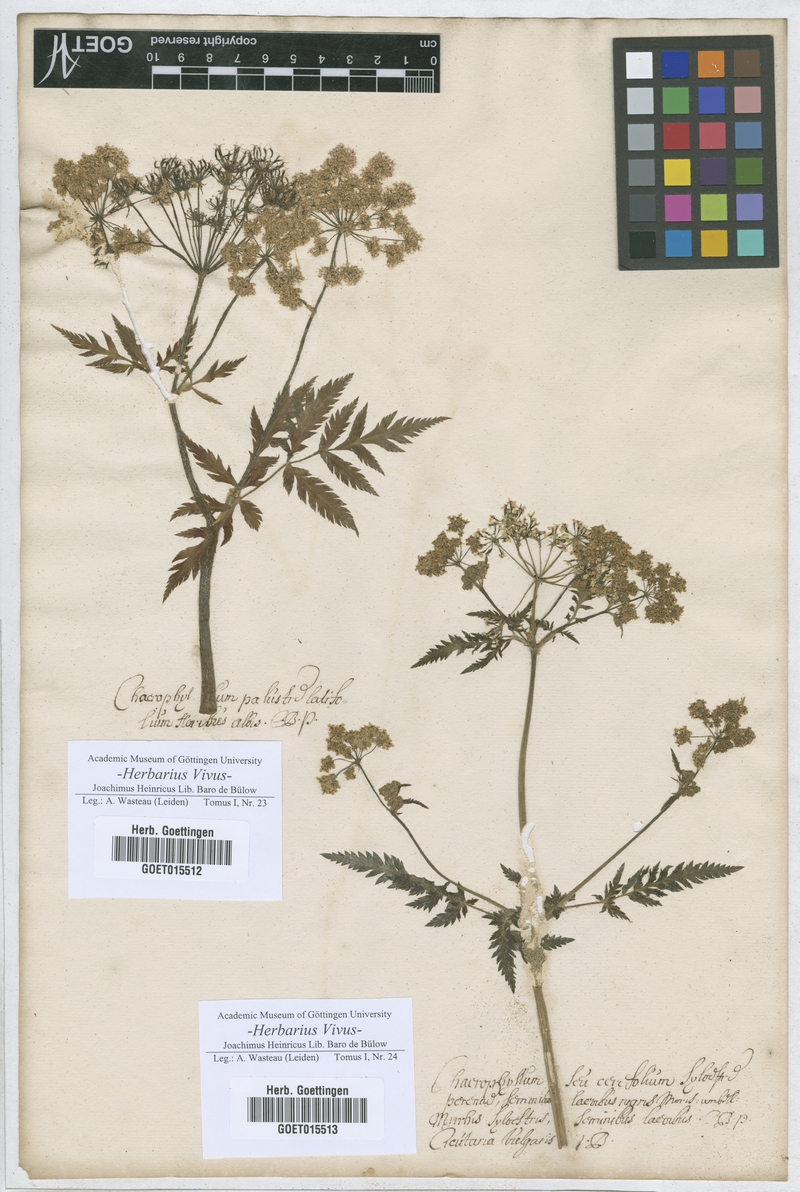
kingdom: Plantae
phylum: Tracheophyta
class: Magnoliopsida
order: Apiales
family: Apiaceae
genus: Chaerophyllum
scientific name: Chaerophyllum
